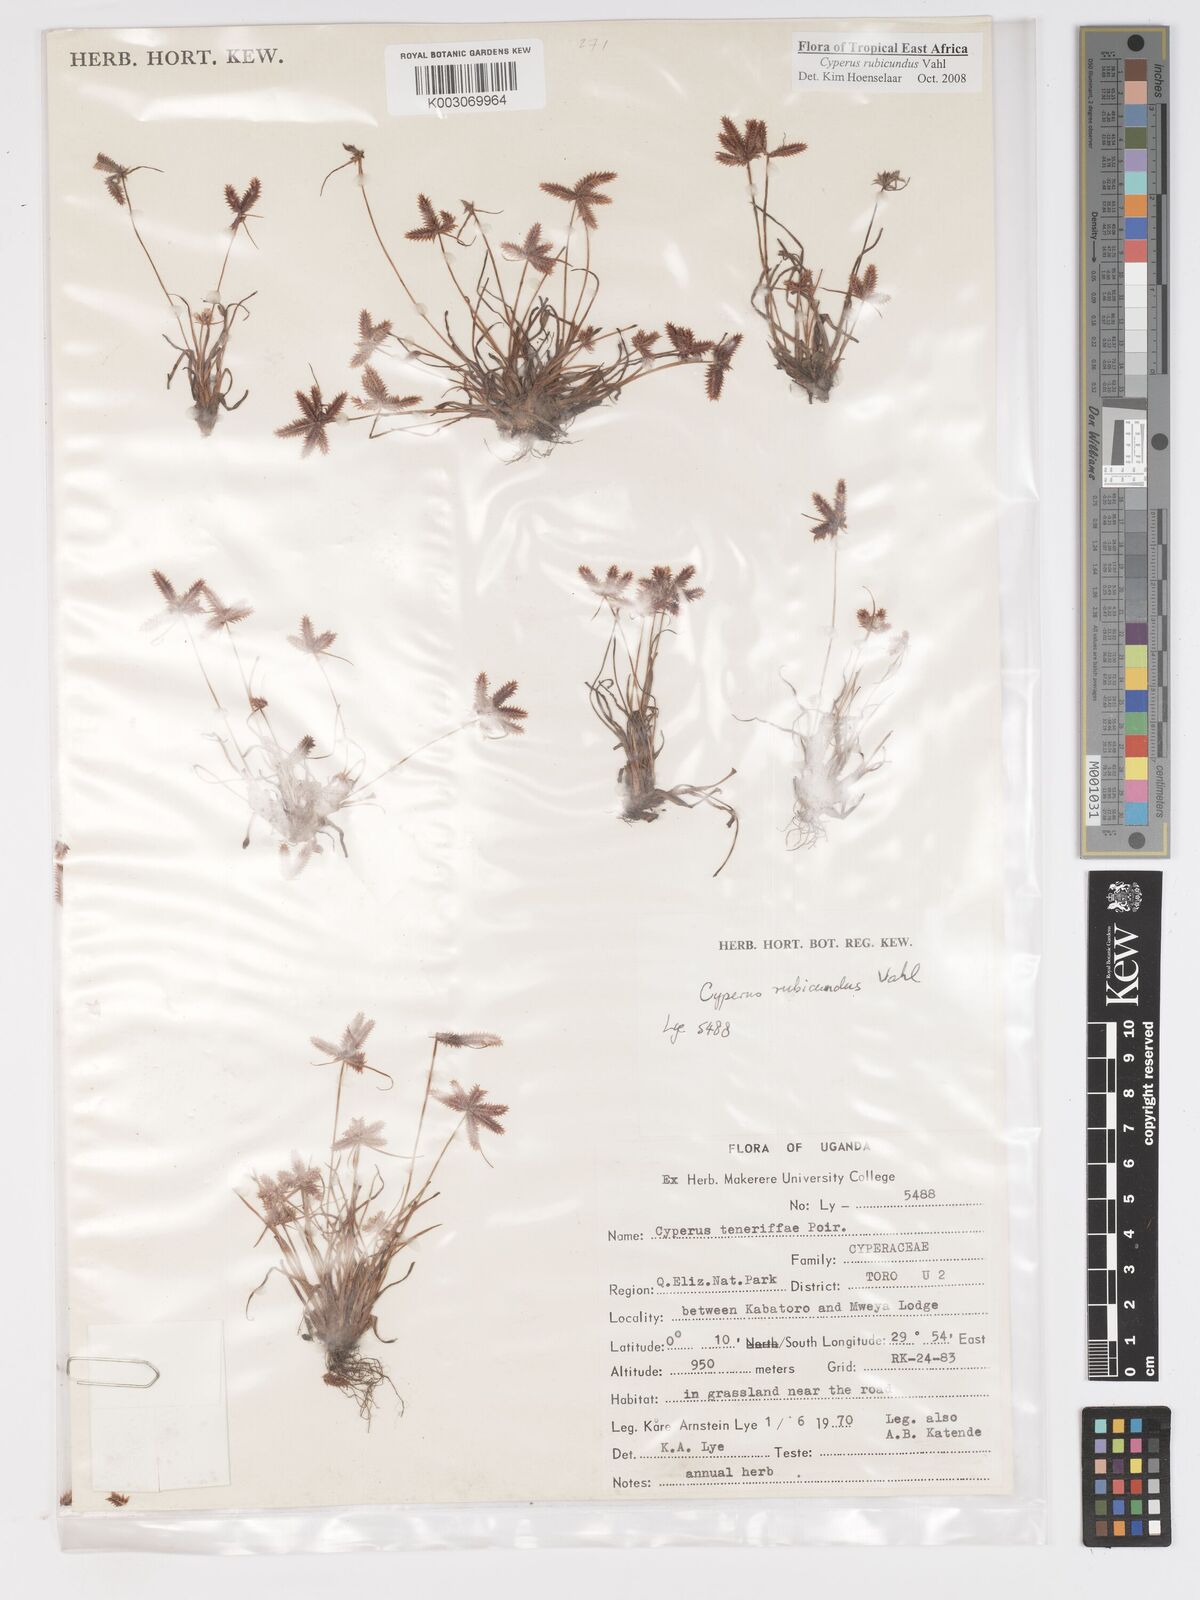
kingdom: Plantae
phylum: Tracheophyta
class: Liliopsida
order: Poales
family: Cyperaceae
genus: Cyperus
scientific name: Cyperus rubicundus
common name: Coco-grass
